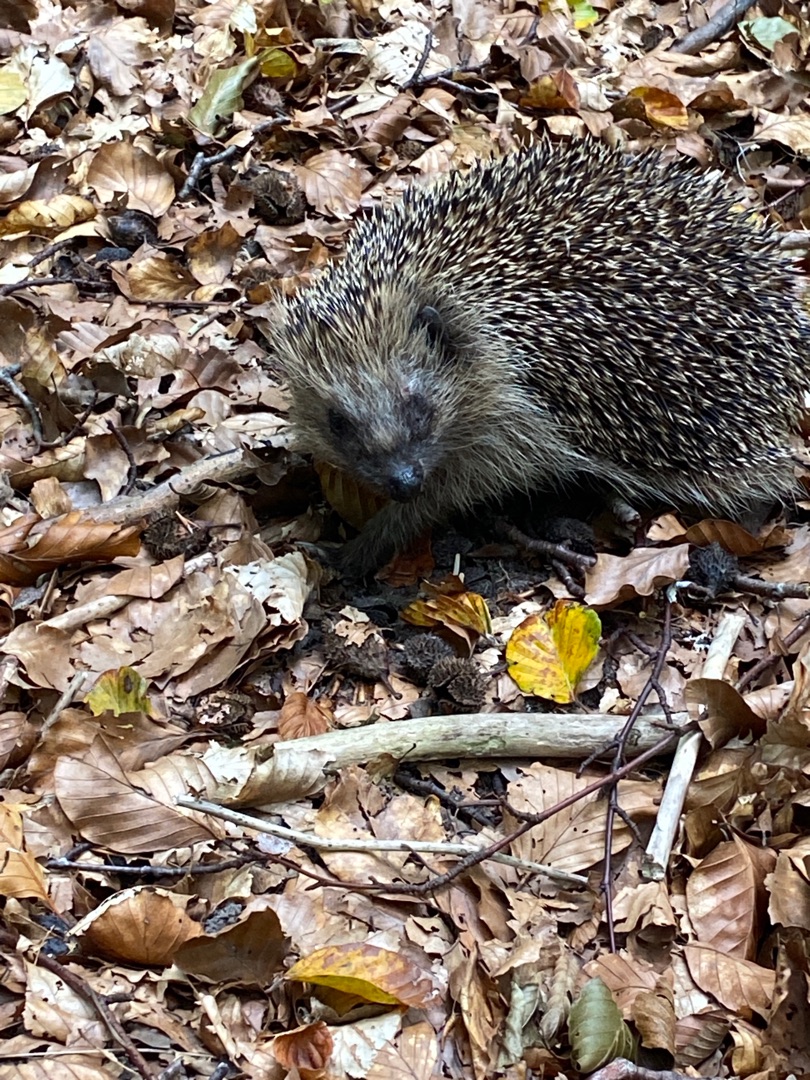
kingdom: Animalia
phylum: Chordata
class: Mammalia
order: Erinaceomorpha
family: Erinaceidae
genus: Erinaceus
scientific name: Erinaceus europaeus
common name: Pindsvin
